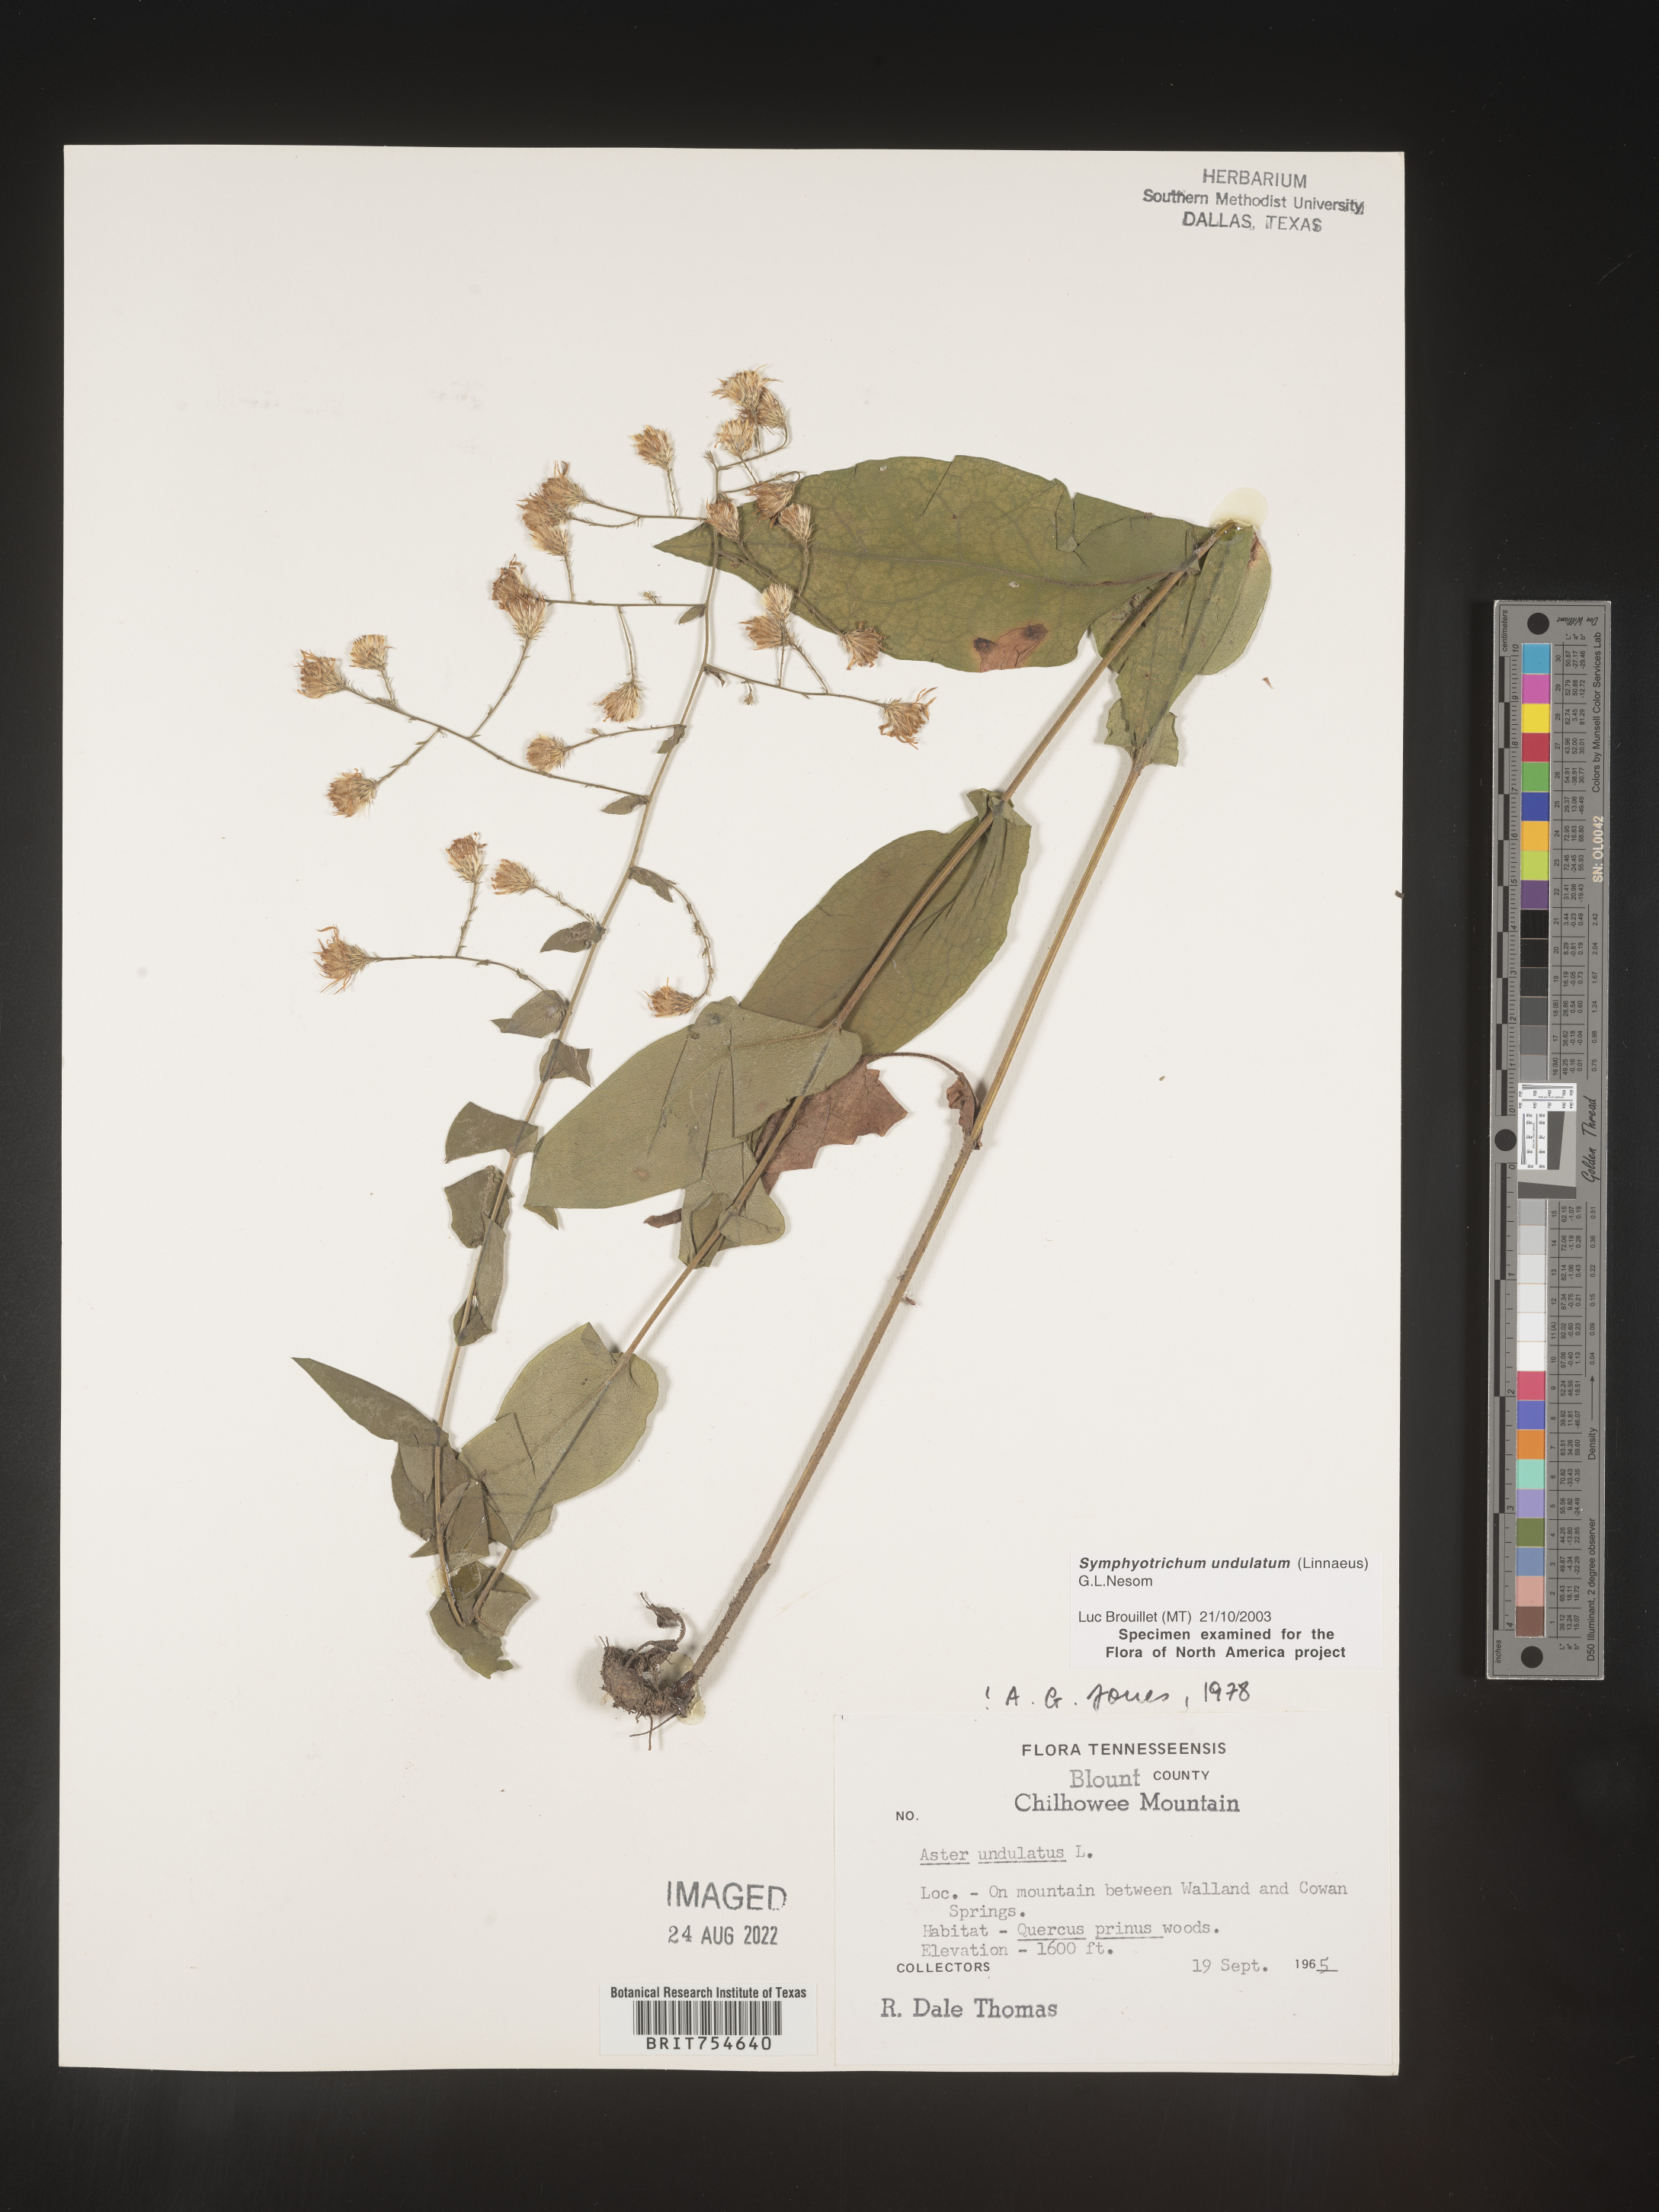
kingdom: Plantae
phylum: Tracheophyta
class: Magnoliopsida
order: Asterales
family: Asteraceae
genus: Symphyotrichum
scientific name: Symphyotrichum undulatum
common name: Clasping heart-leaf aster
